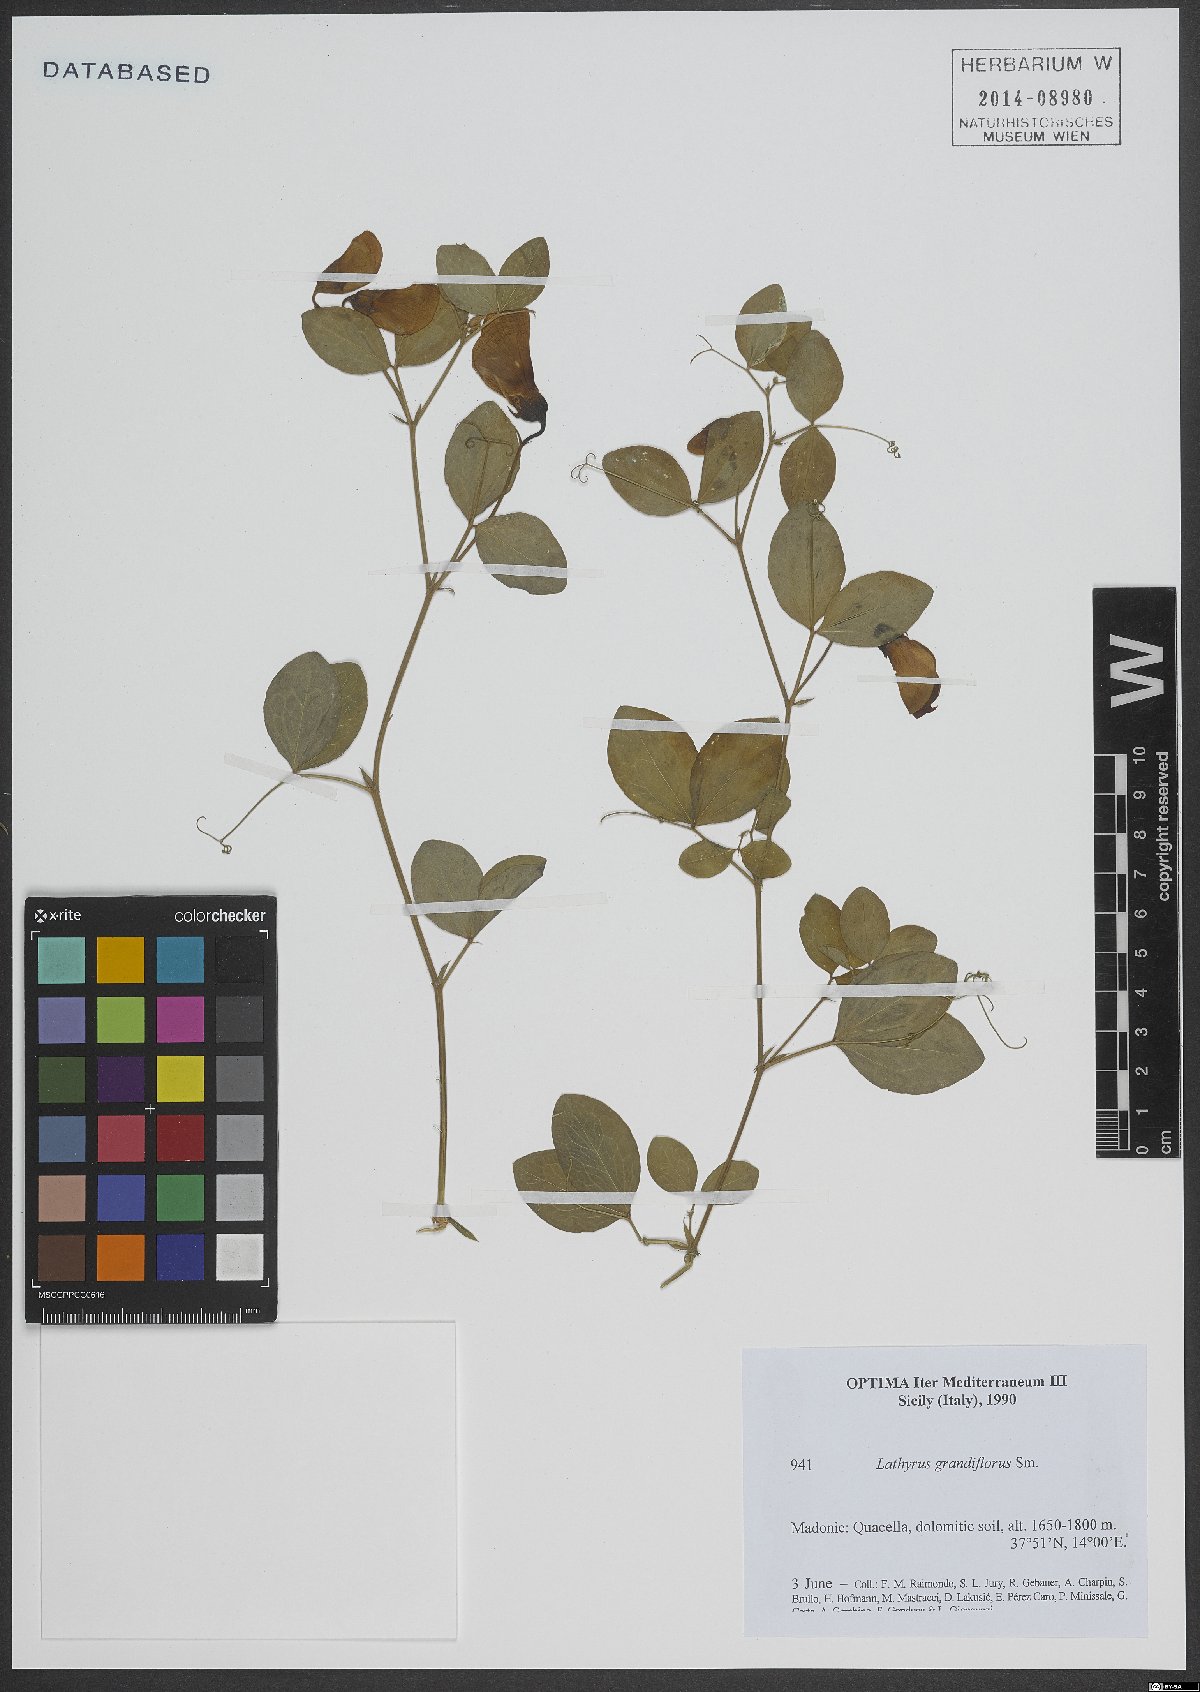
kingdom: Plantae
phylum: Tracheophyta
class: Magnoliopsida
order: Fabales
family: Fabaceae
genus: Lathyrus
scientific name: Lathyrus grandiflorus
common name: Two-flowered everlasting-pea
